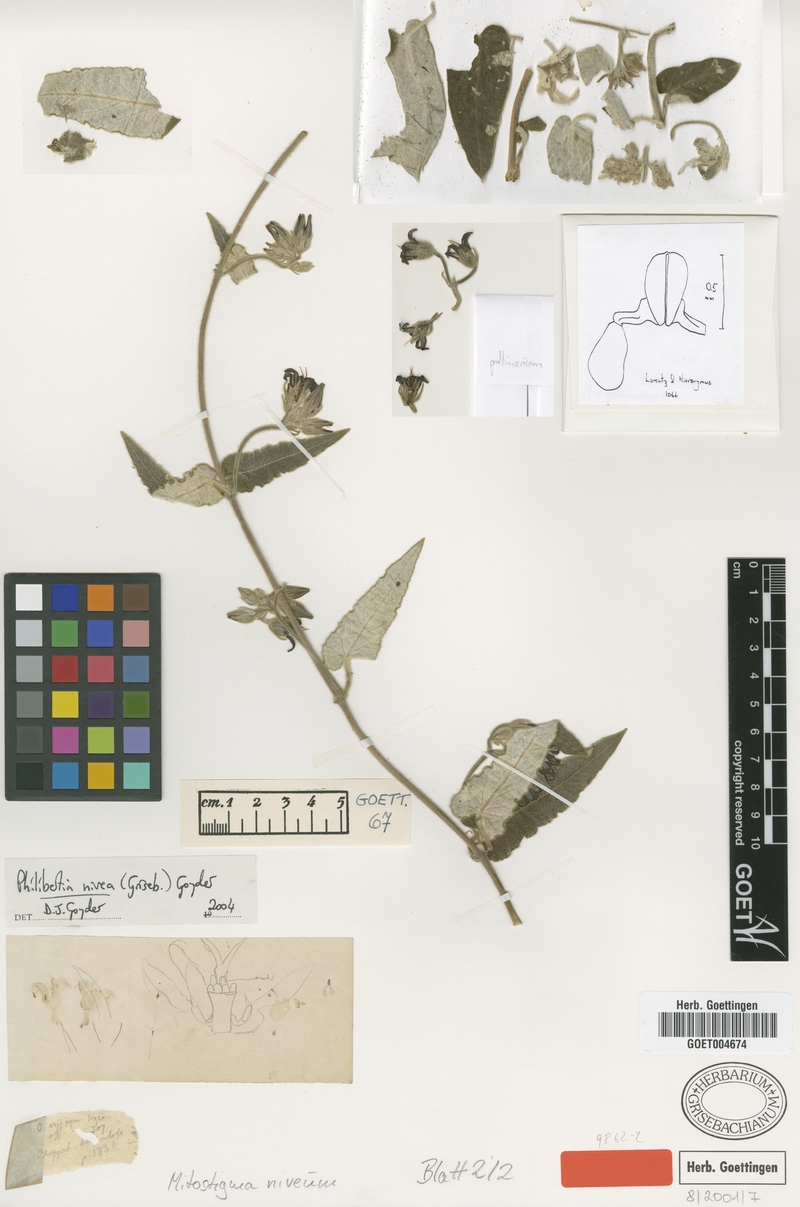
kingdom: Plantae
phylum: Tracheophyta
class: Magnoliopsida
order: Gentianales
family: Apocynaceae
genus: Philibertia
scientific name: Philibertia nivea
